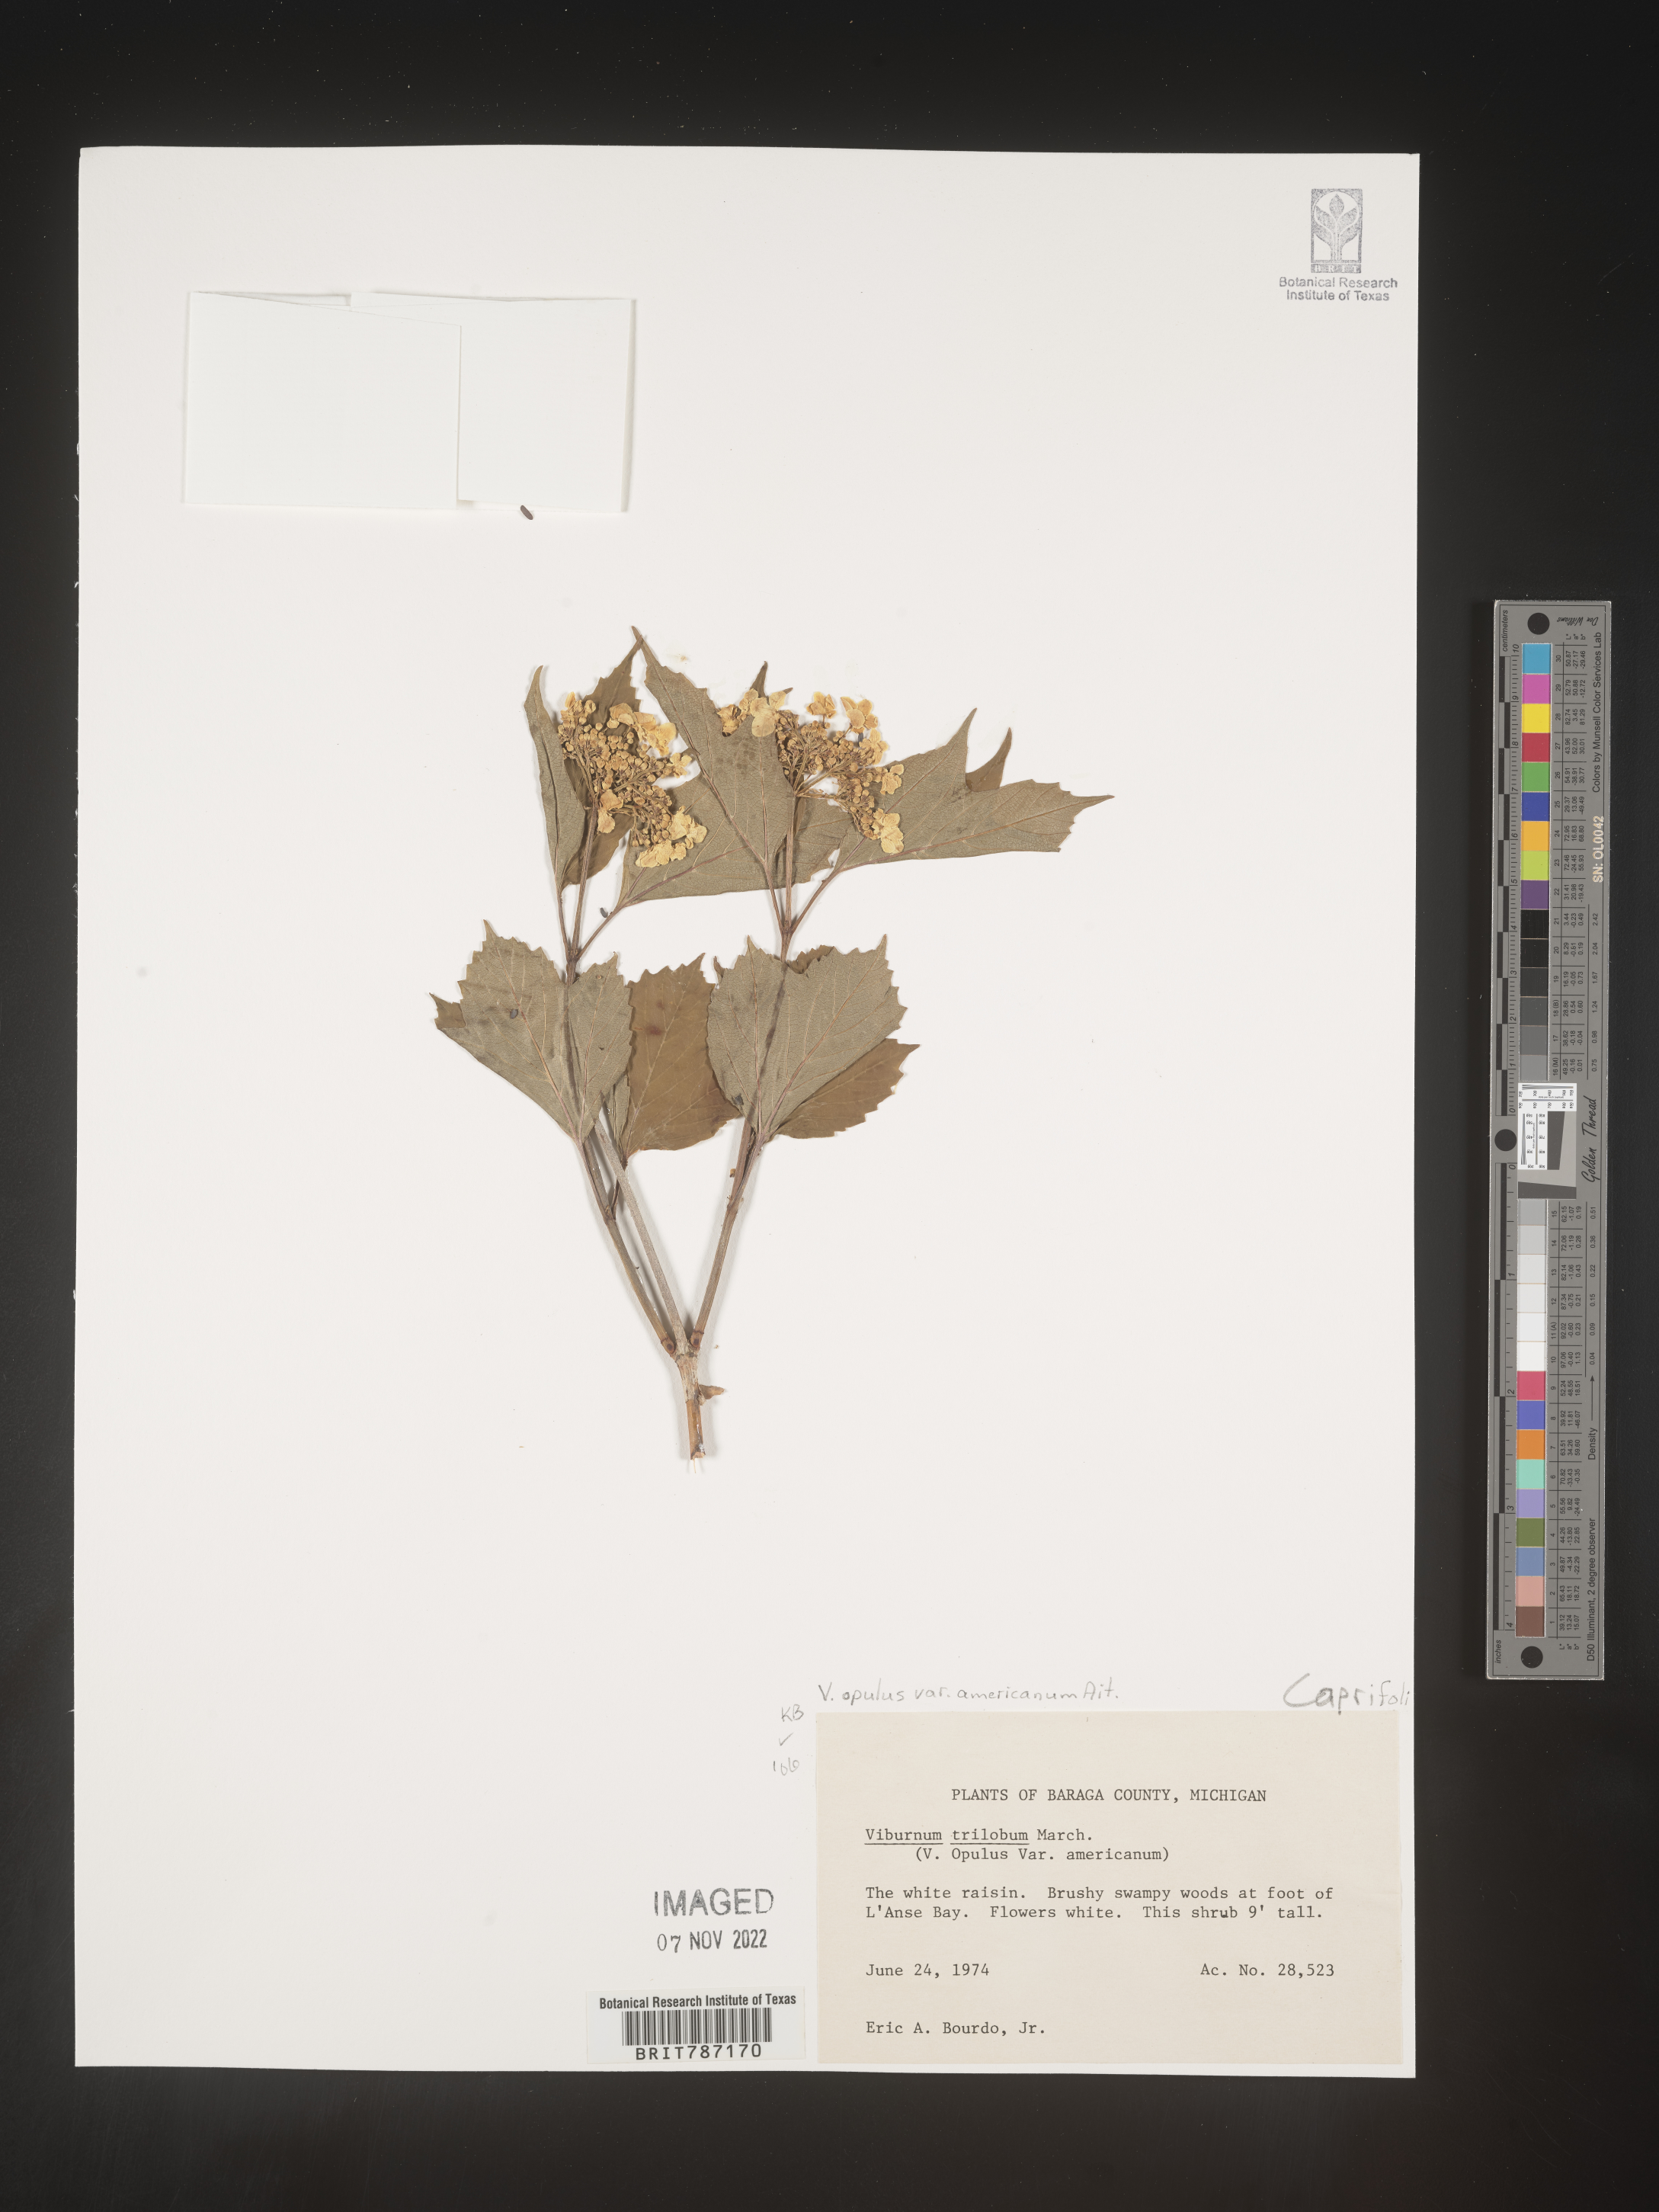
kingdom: Plantae
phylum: Tracheophyta
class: Magnoliopsida
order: Dipsacales
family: Viburnaceae
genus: Viburnum
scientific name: Viburnum trilobum
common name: American cranberrybush
